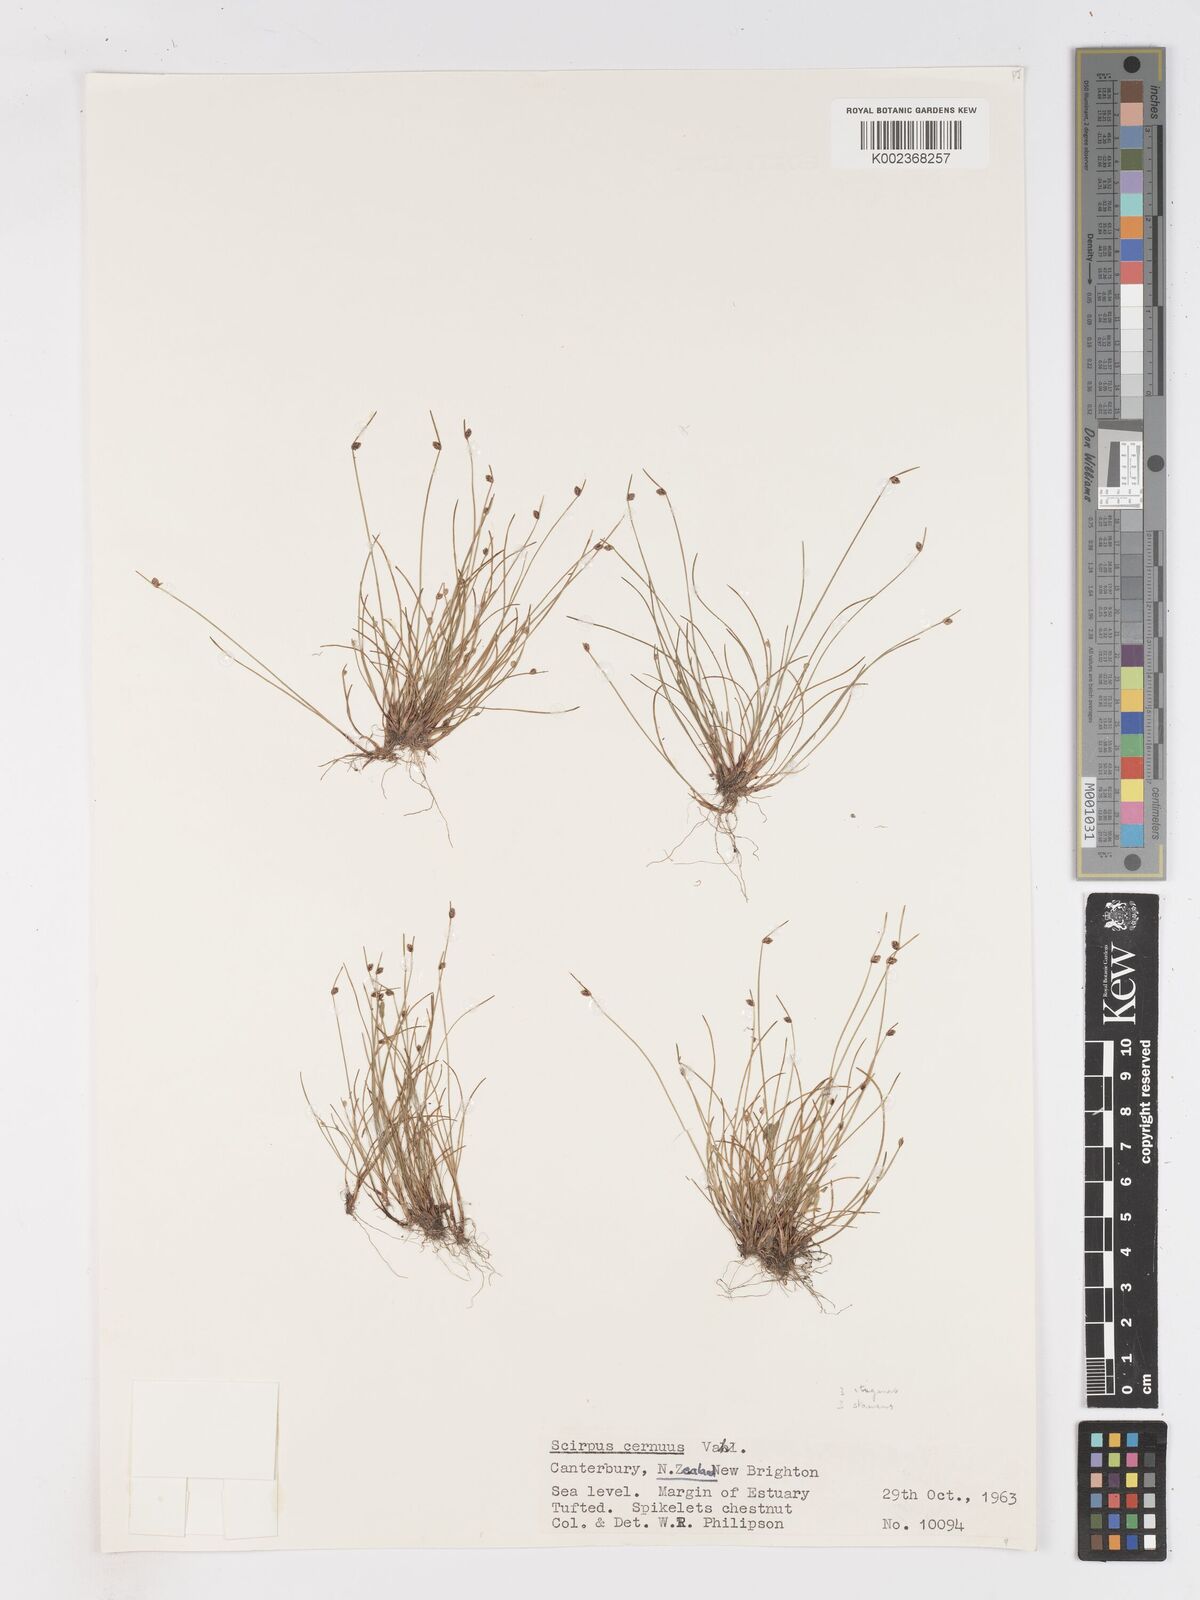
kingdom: Plantae
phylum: Tracheophyta
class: Liliopsida
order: Poales
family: Cyperaceae
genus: Isolepis
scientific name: Isolepis cernua
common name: Slender club-rush
